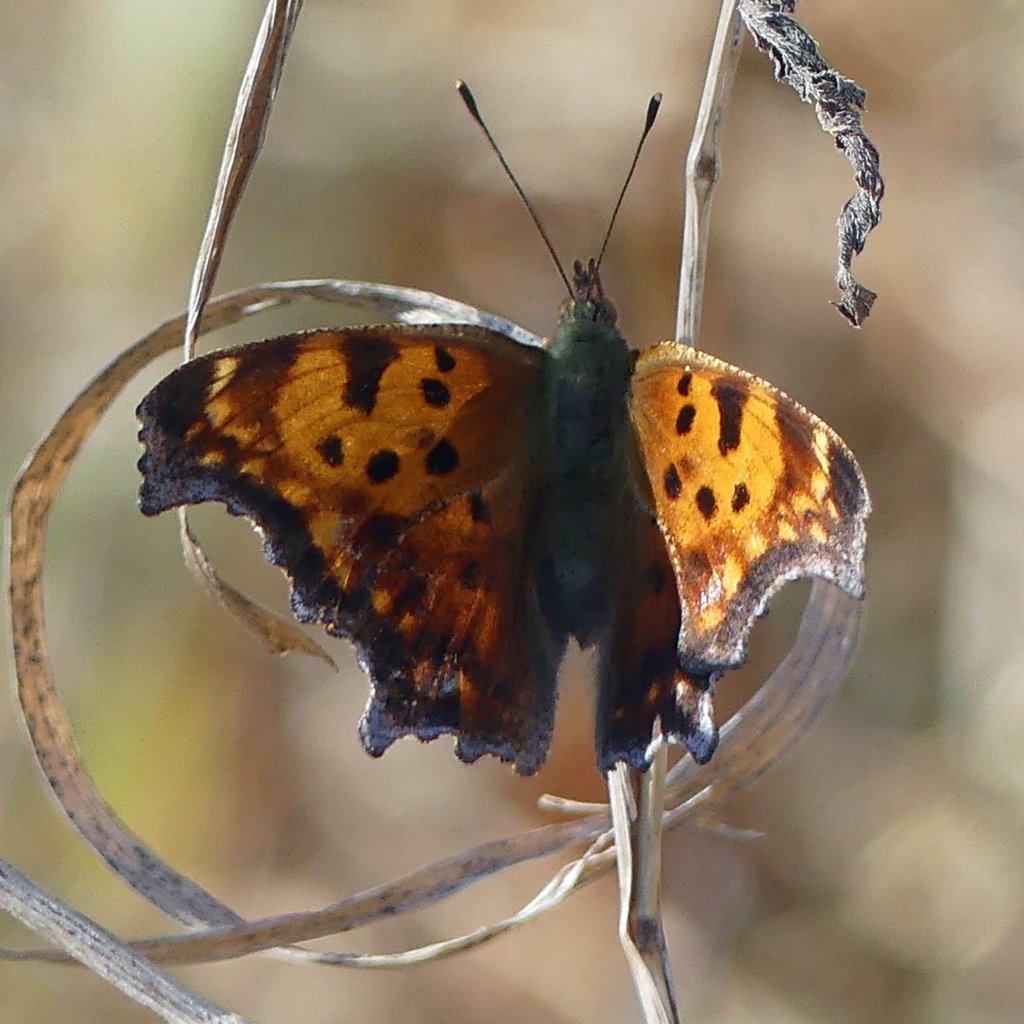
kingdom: Animalia
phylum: Arthropoda
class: Insecta
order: Lepidoptera
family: Nymphalidae
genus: Polygonia
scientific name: Polygonia comma
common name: Eastern Comma
